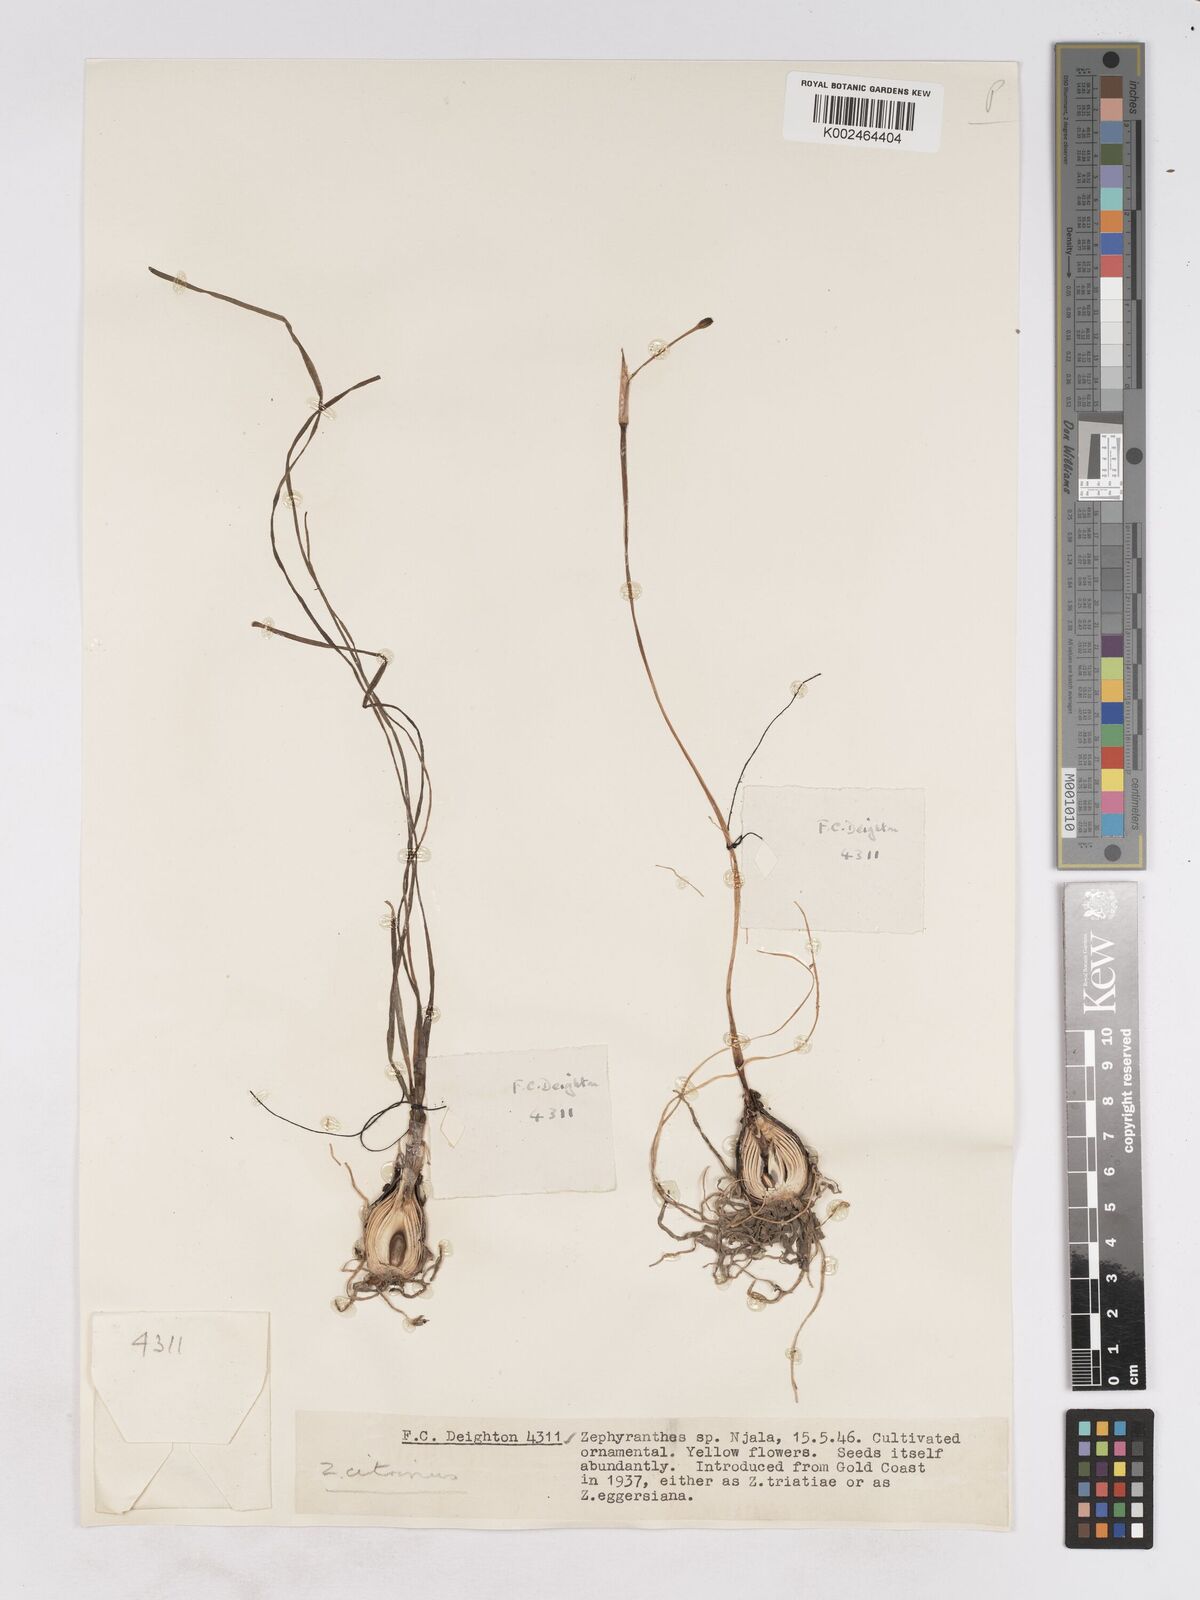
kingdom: Plantae
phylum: Tracheophyta
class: Liliopsida
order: Asparagales
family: Amaryllidaceae
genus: Zephyranthes
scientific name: Zephyranthes citrina
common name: Citron zephyrlily
